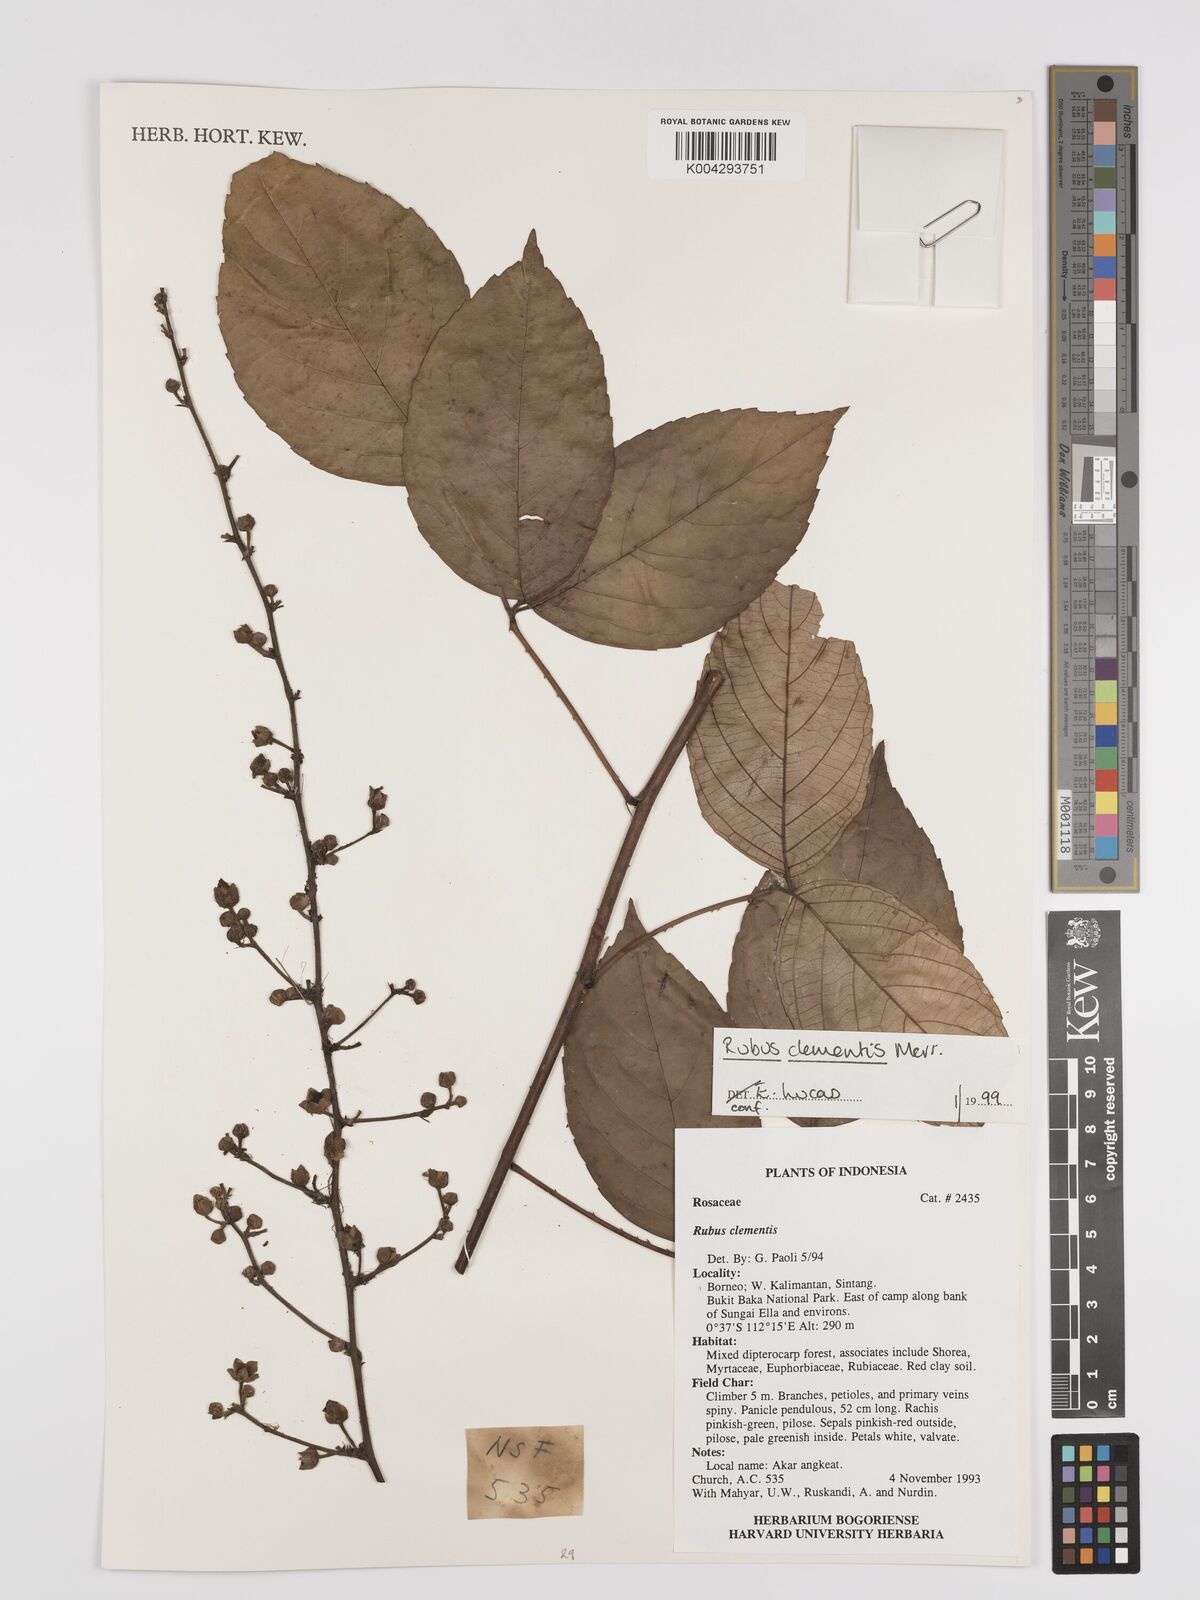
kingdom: Plantae
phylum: Tracheophyta
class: Magnoliopsida
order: Rosales
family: Rosaceae
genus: Rubus
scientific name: Rubus clementis
